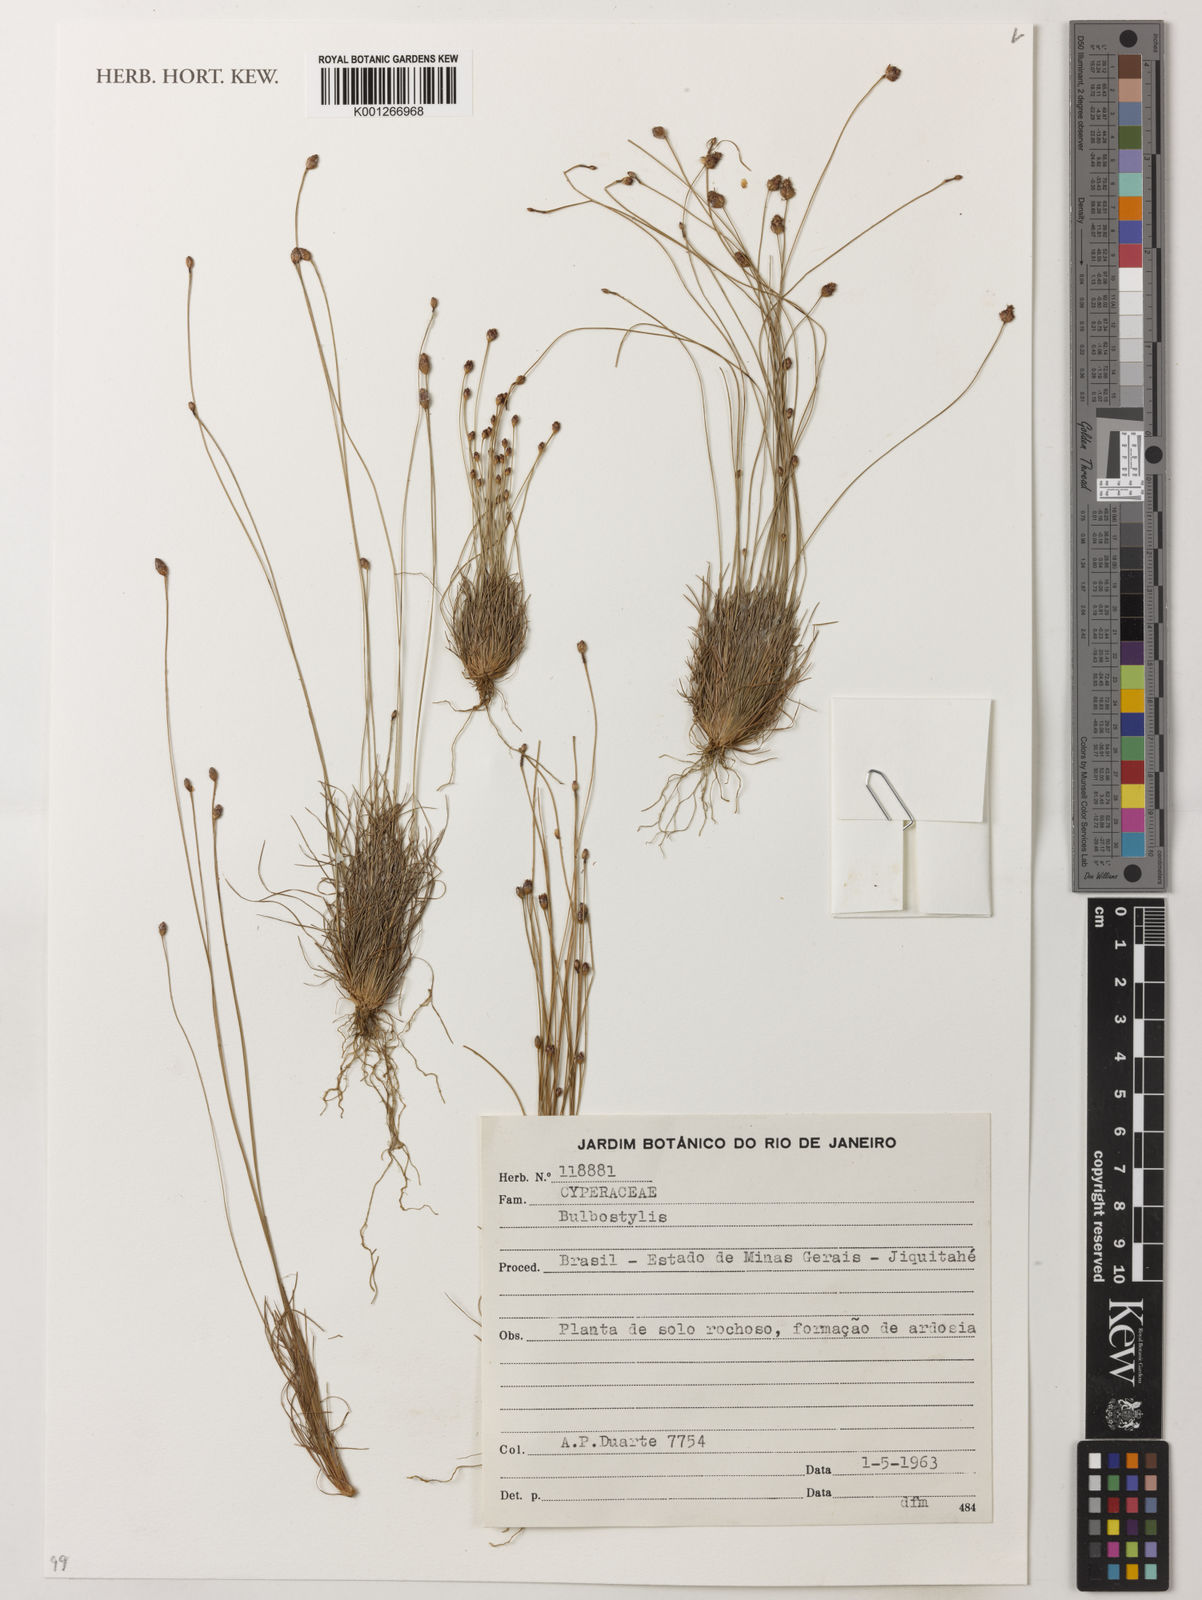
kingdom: Plantae
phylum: Tracheophyta
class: Liliopsida
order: Poales
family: Cyperaceae
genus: Bulbostylis
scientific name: Bulbostylis
